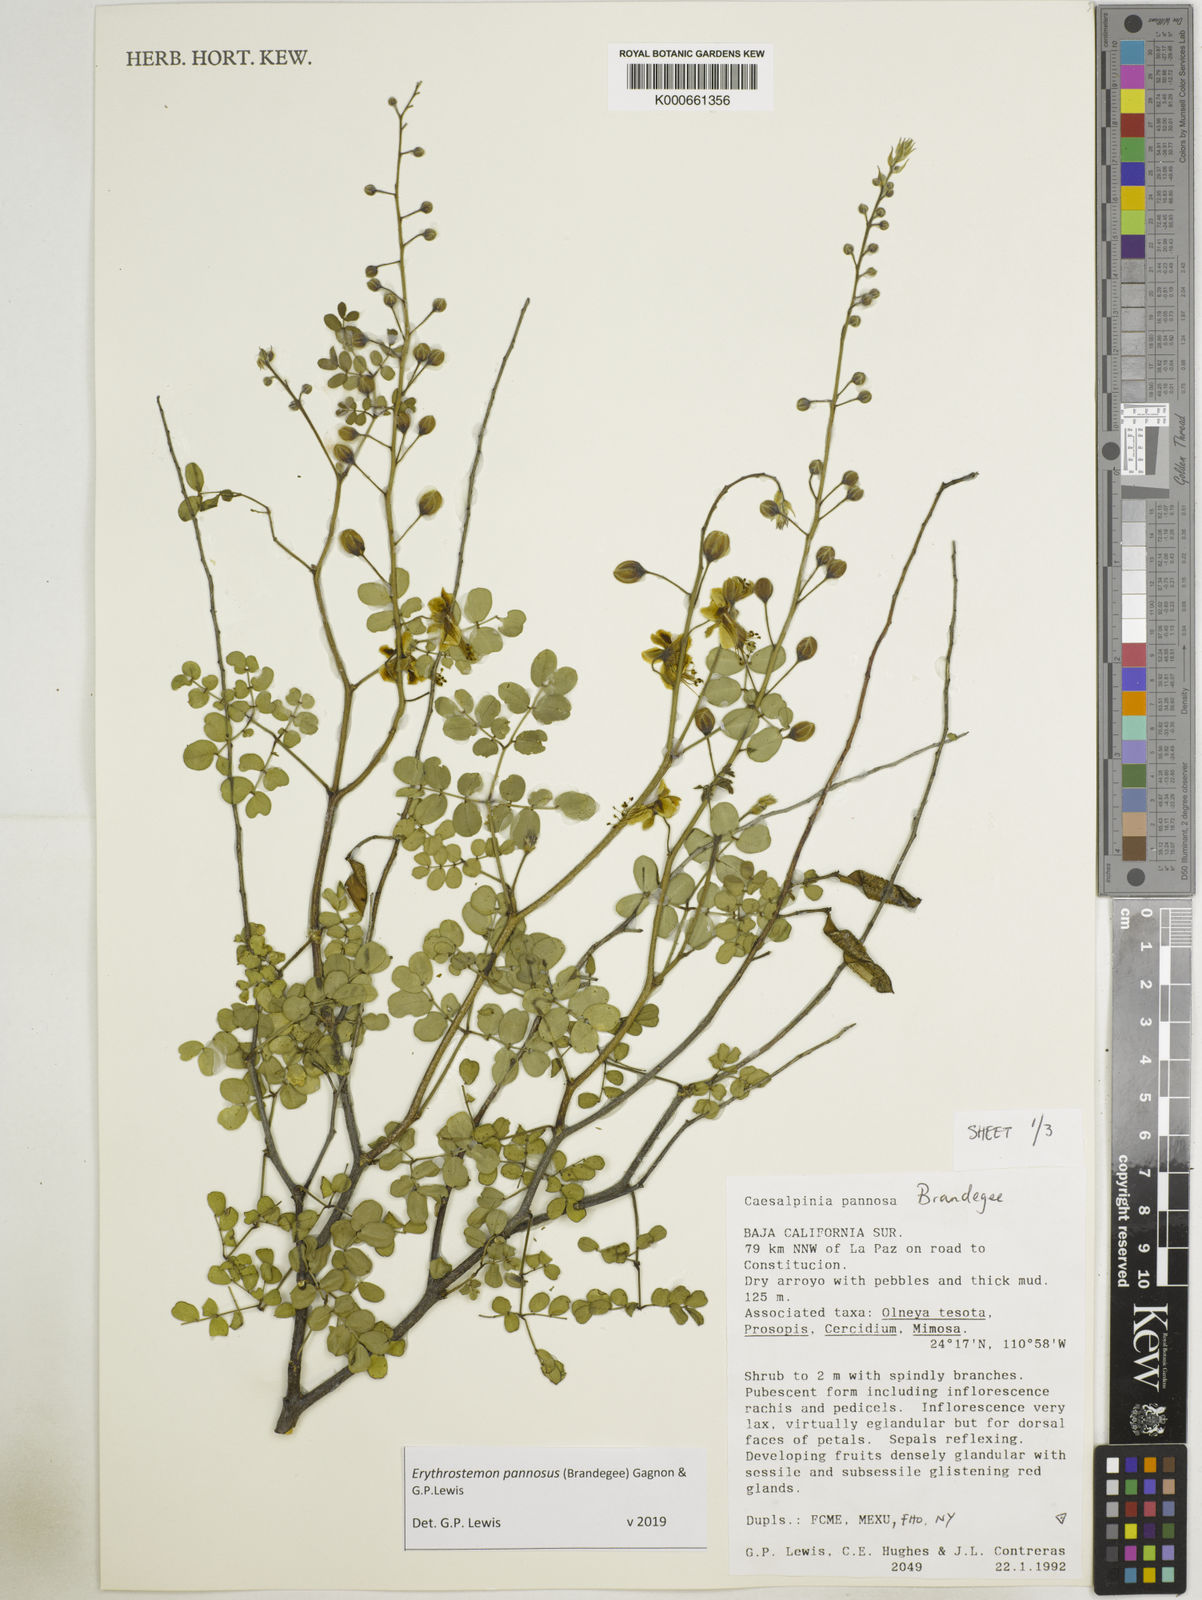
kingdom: Plantae
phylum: Tracheophyta
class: Magnoliopsida
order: Fabales
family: Fabaceae
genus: Erythrostemon
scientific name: Erythrostemon pannosus
